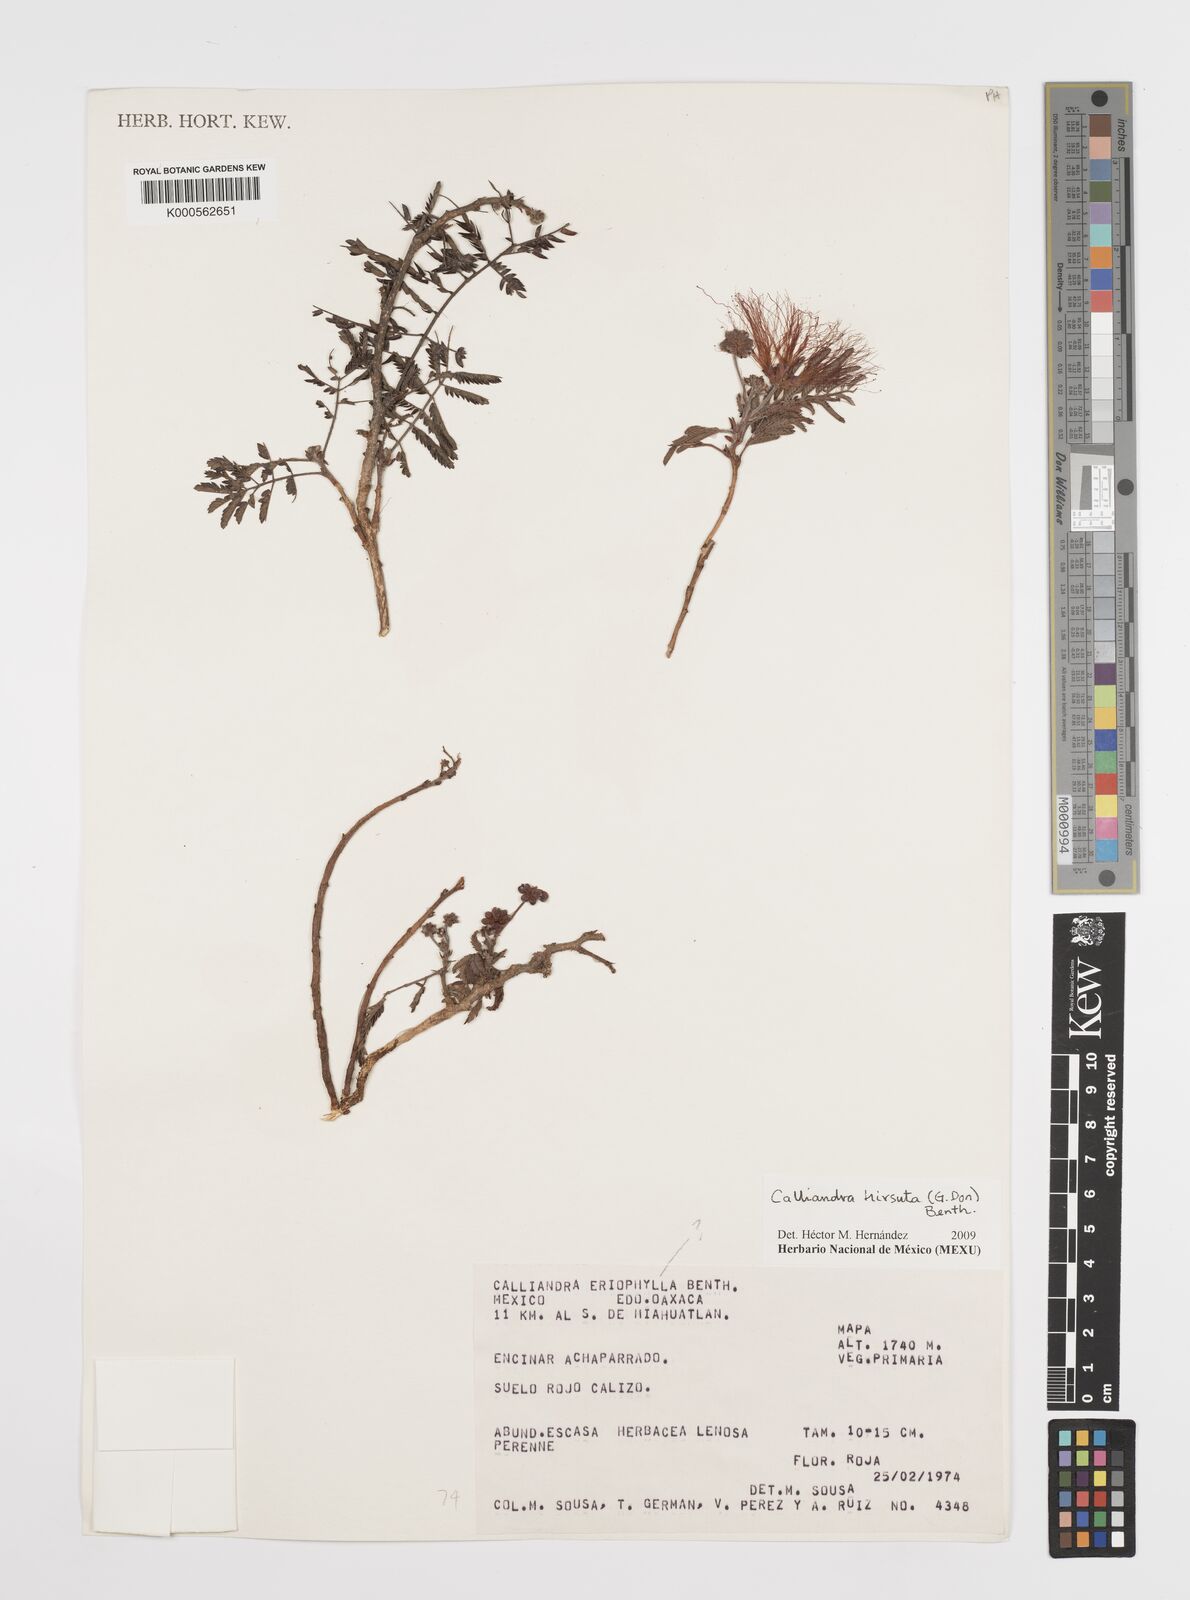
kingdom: Plantae
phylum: Tracheophyta
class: Magnoliopsida
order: Fabales
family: Fabaceae
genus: Calliandra
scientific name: Calliandra hirsuta
